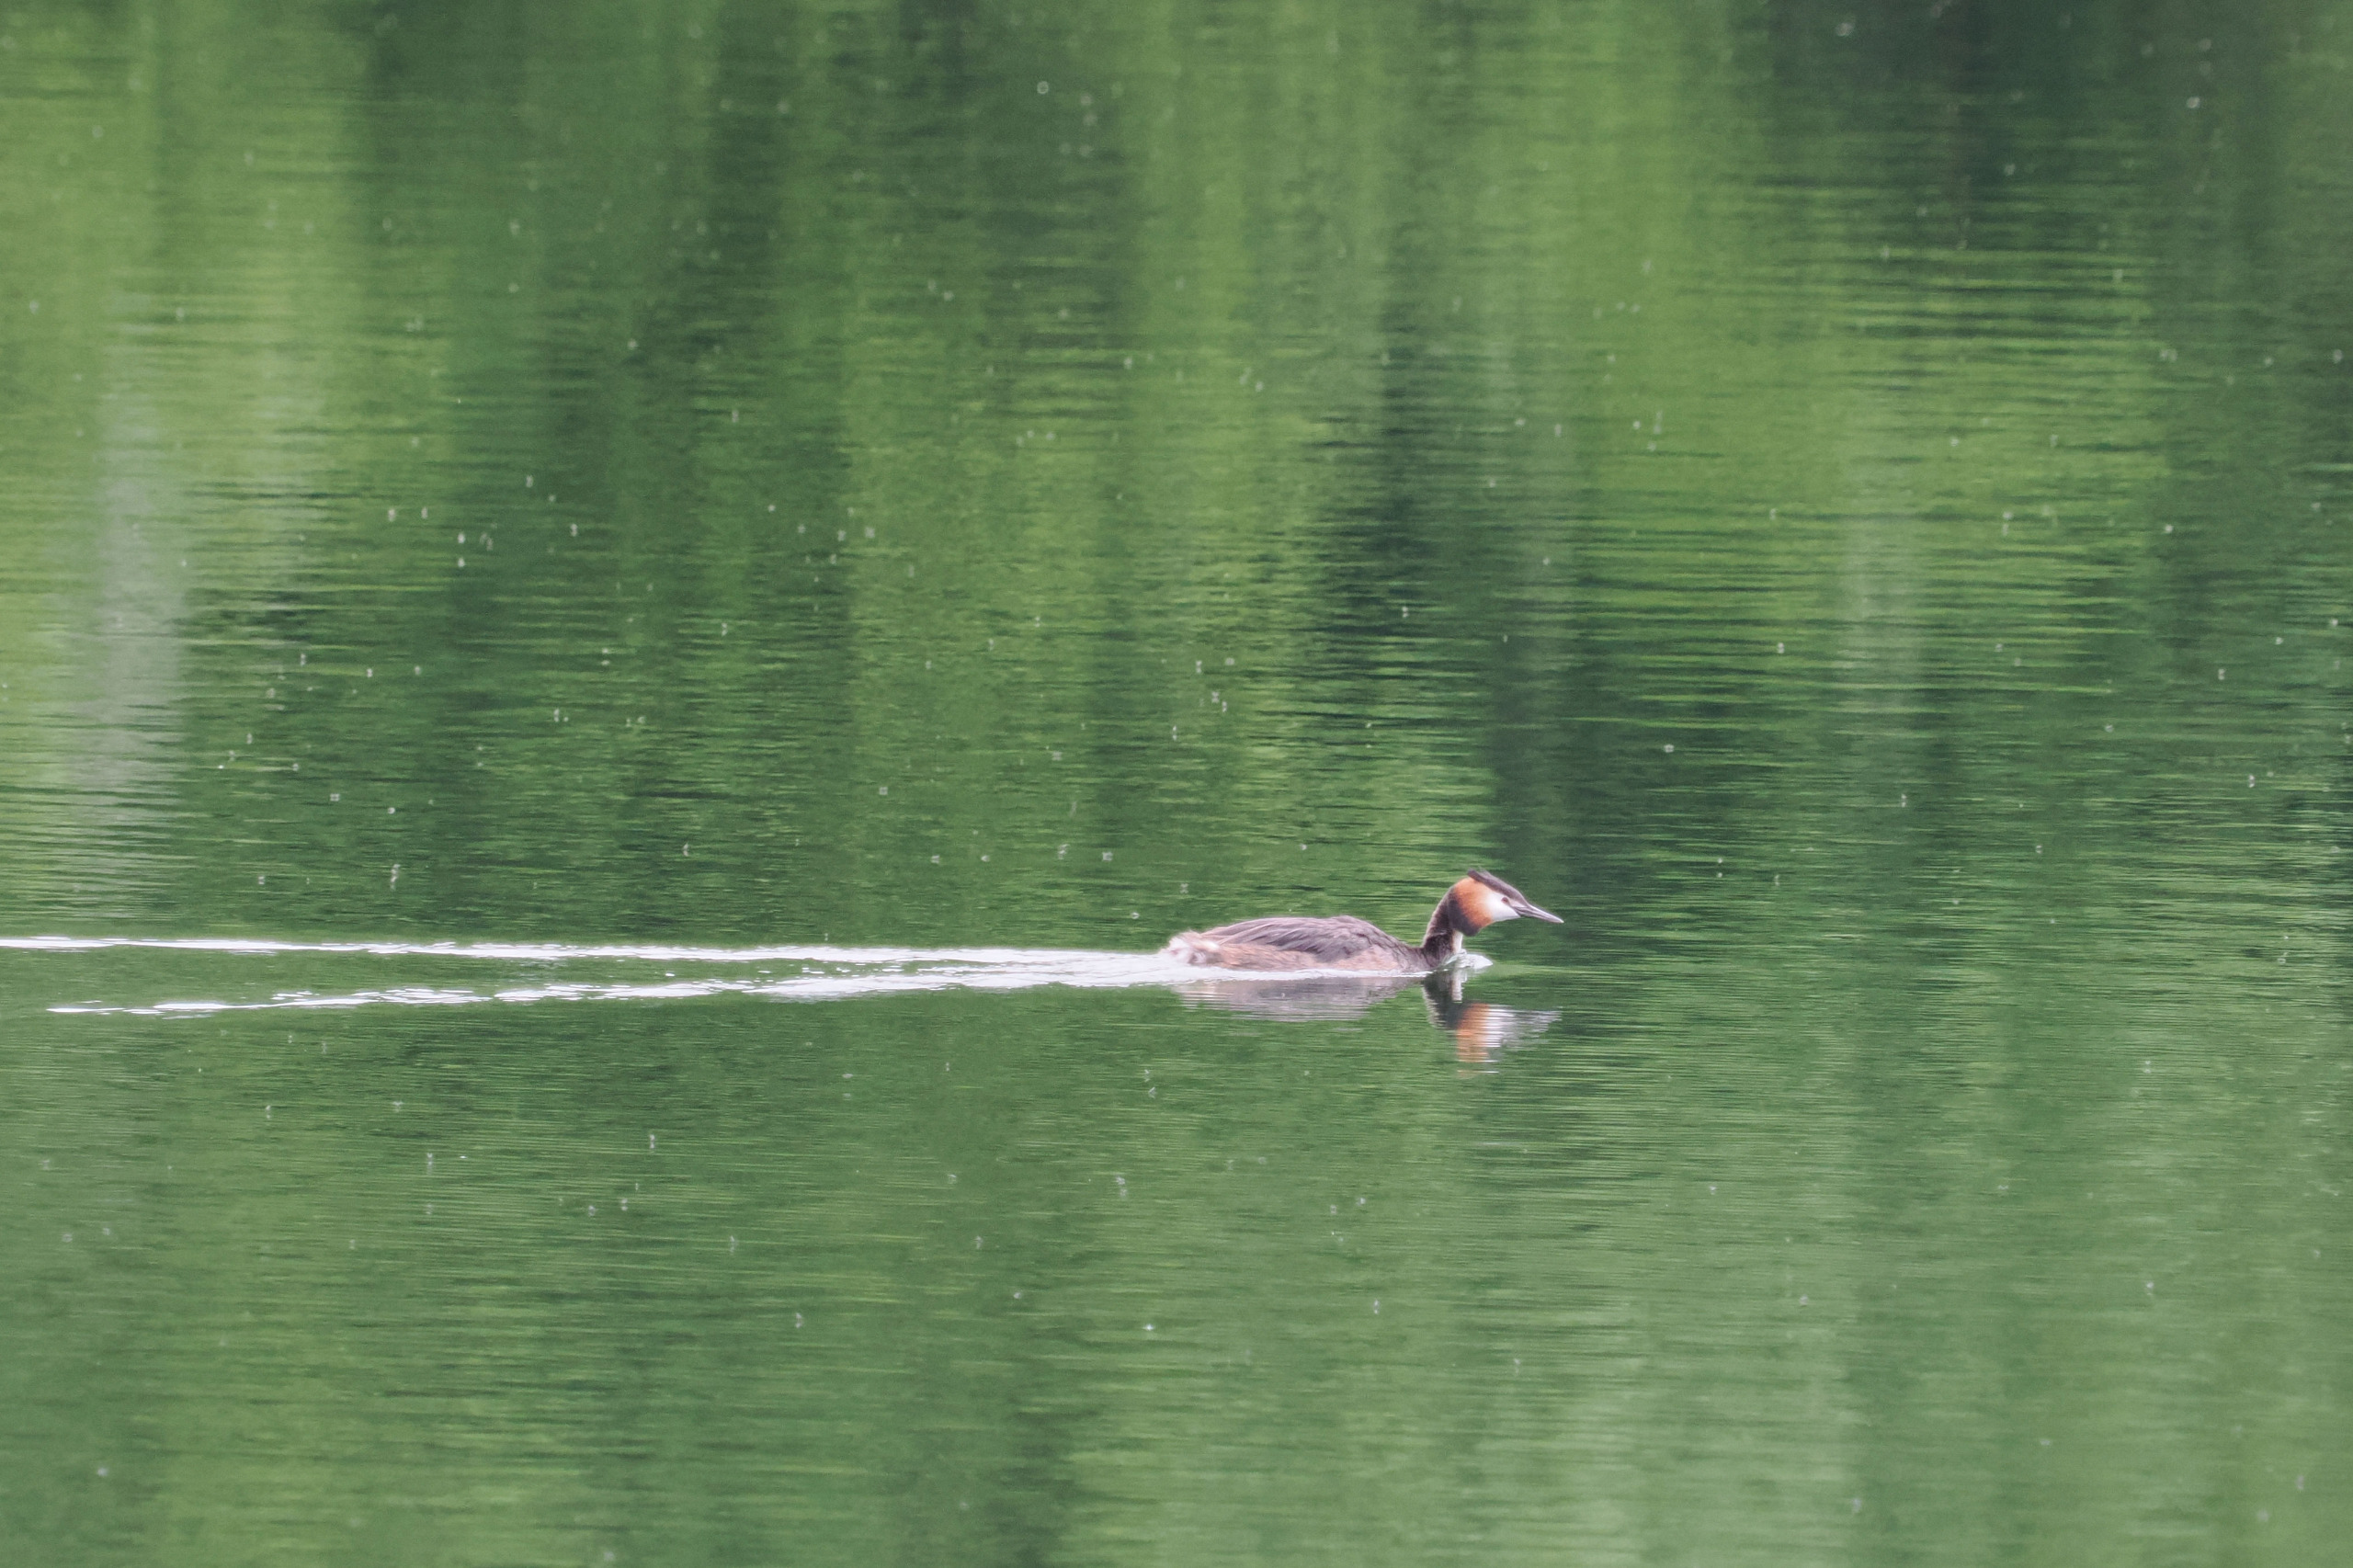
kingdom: Animalia
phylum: Chordata
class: Aves
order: Podicipediformes
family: Podicipedidae
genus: Podiceps
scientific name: Podiceps cristatus
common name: Toppet lappedykker
